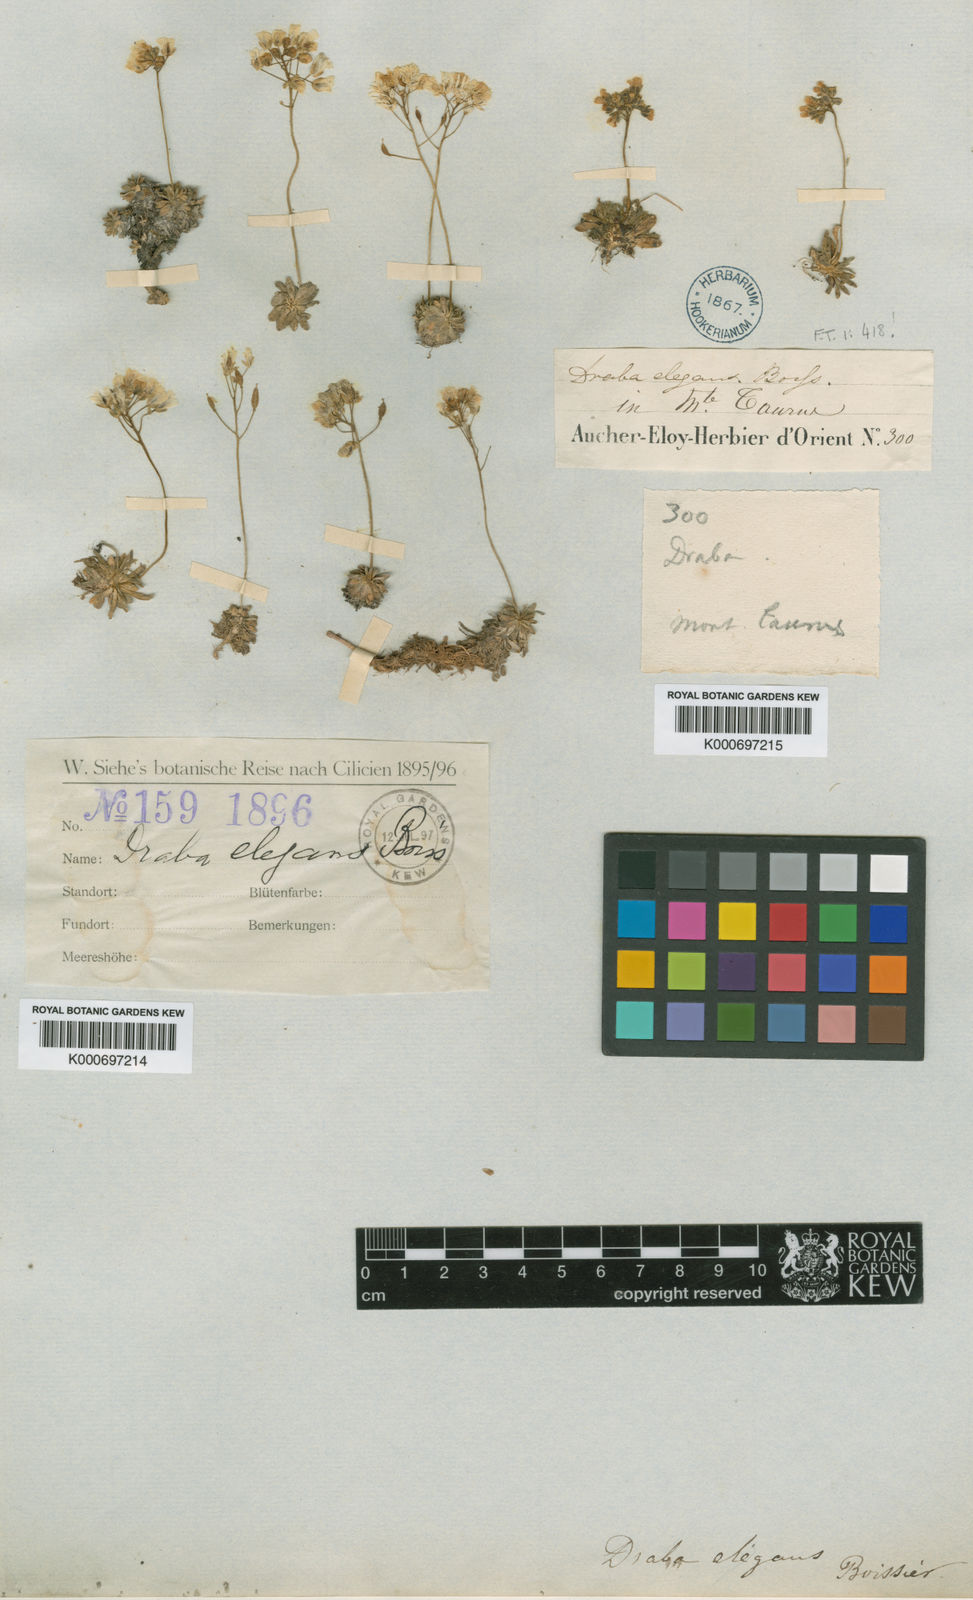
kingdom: Plantae
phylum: Tracheophyta
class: Magnoliopsida
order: Brassicales
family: Brassicaceae
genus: Draba
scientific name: Draba elegans
